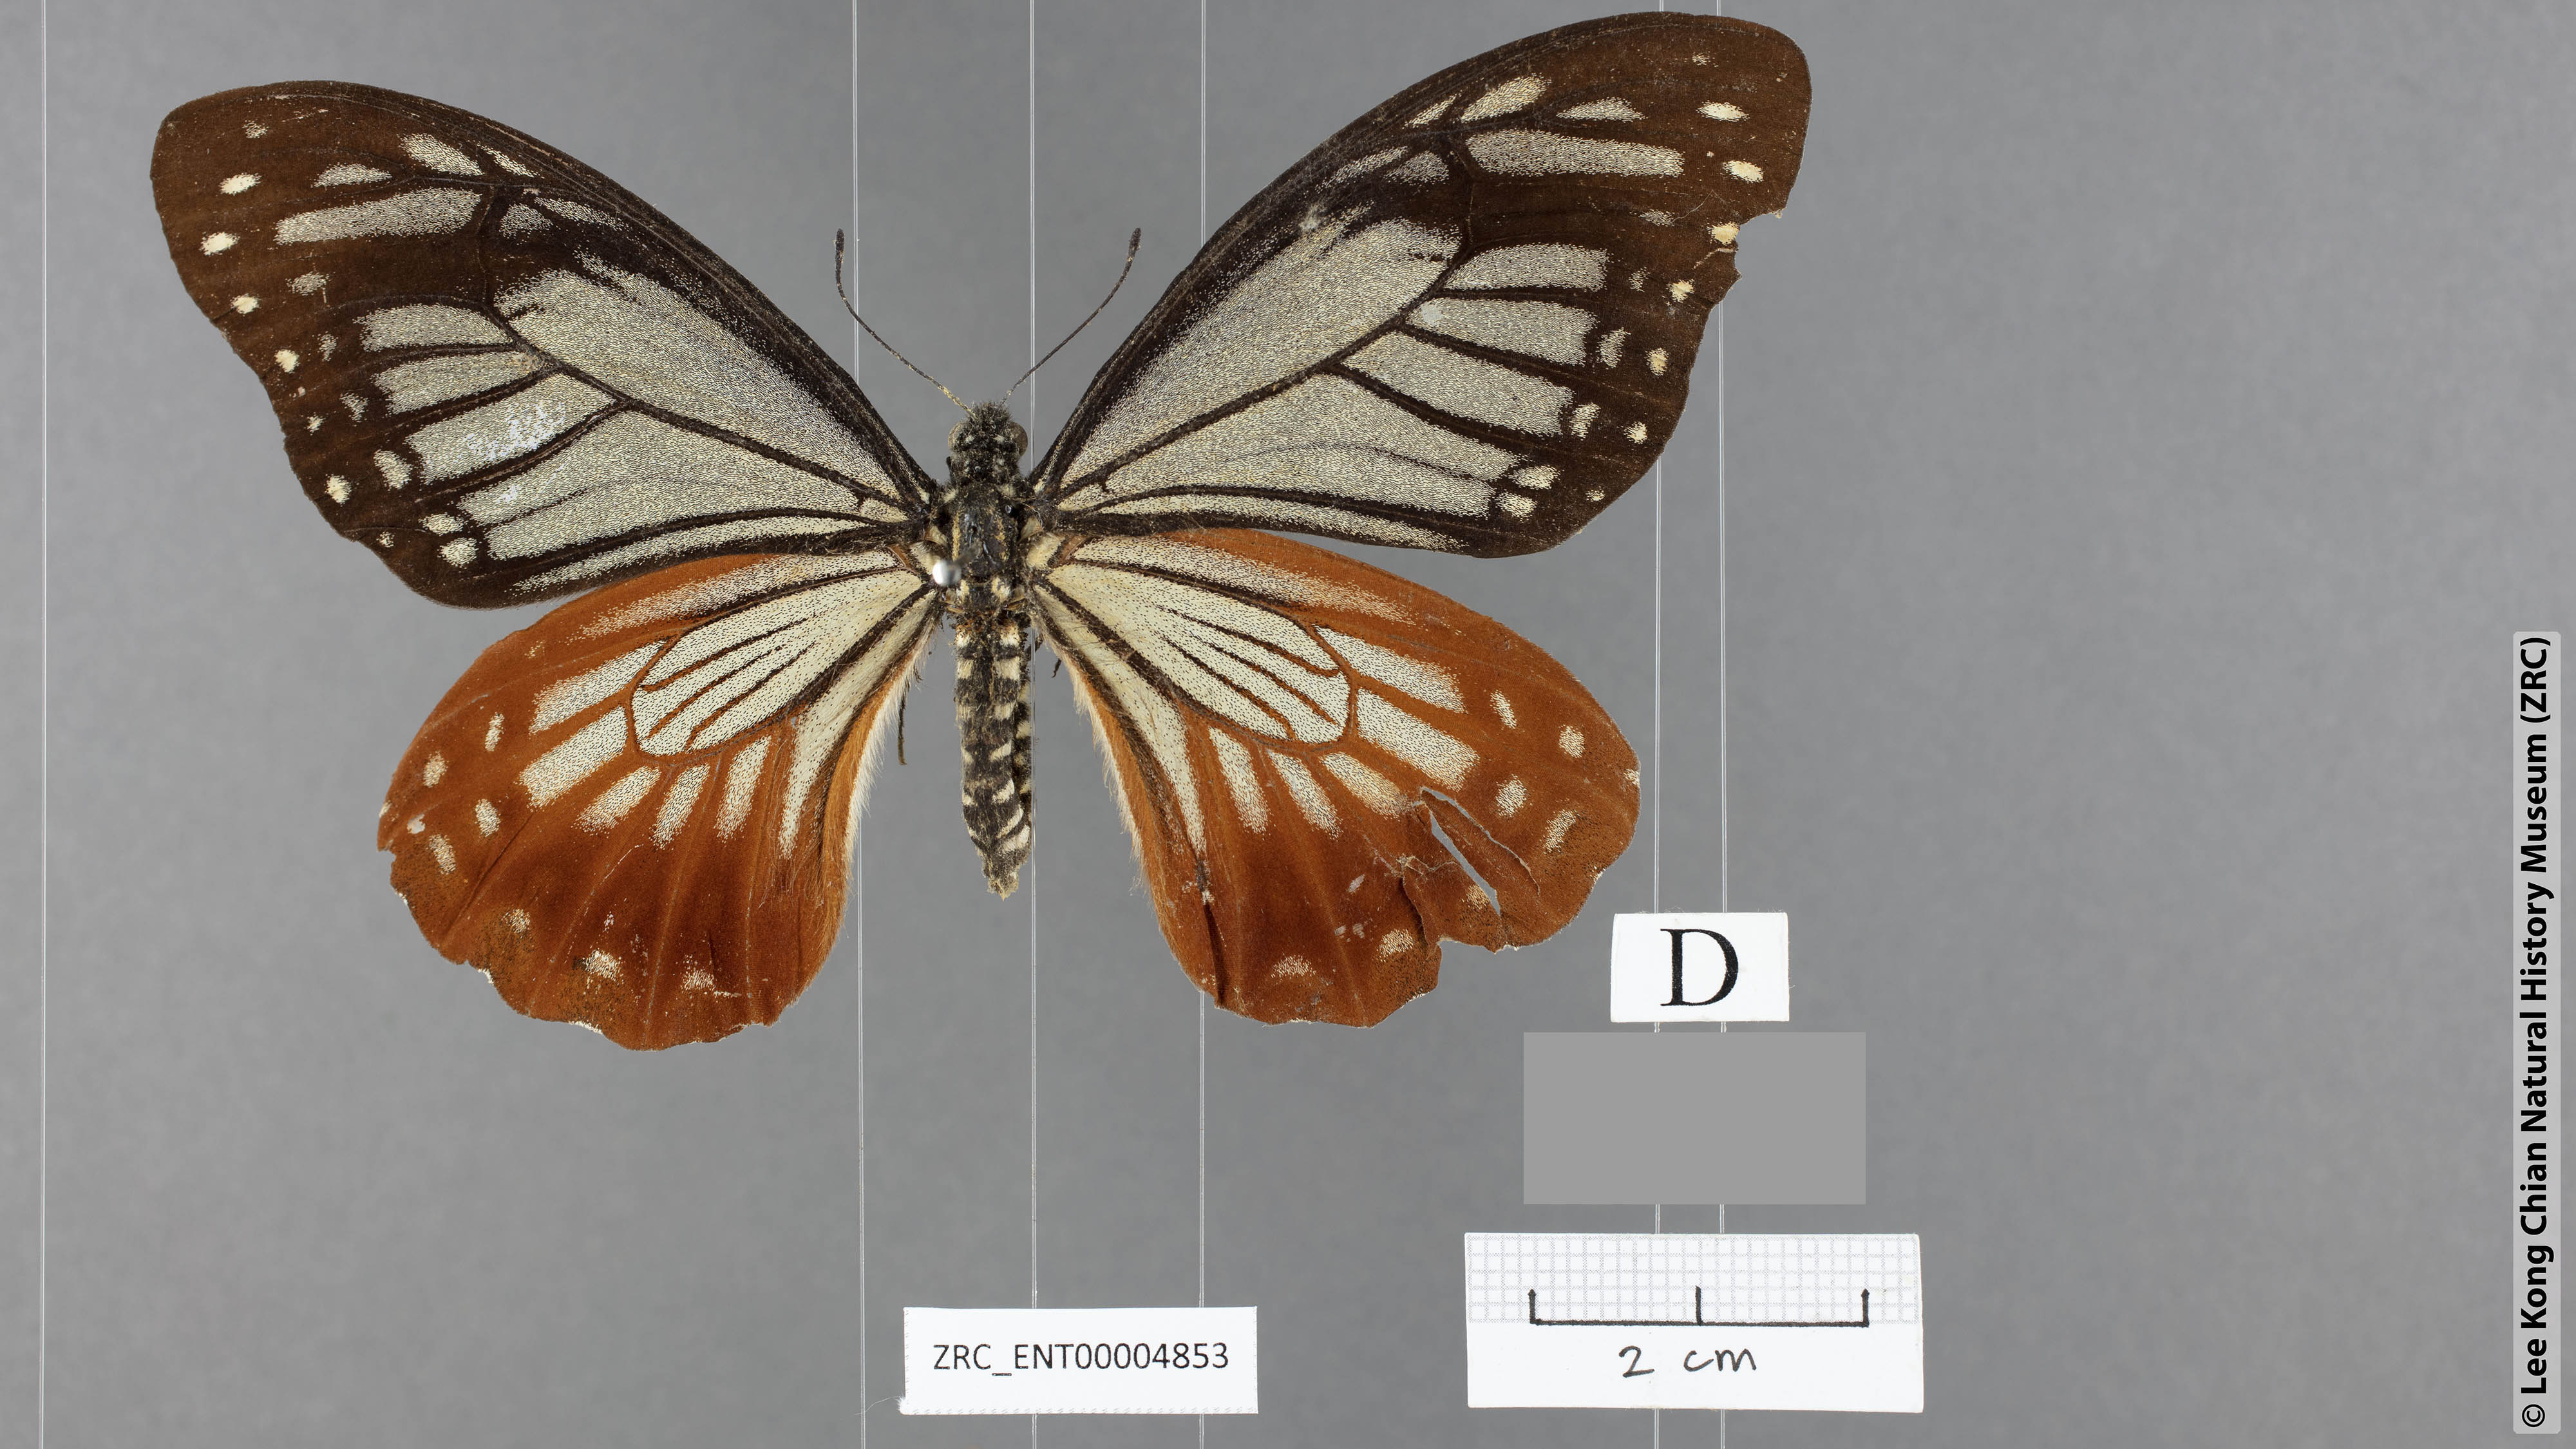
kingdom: Animalia
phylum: Arthropoda
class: Insecta
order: Lepidoptera
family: Papilionidae
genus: Chilasa
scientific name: Chilasa agestor
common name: Tawny mime
